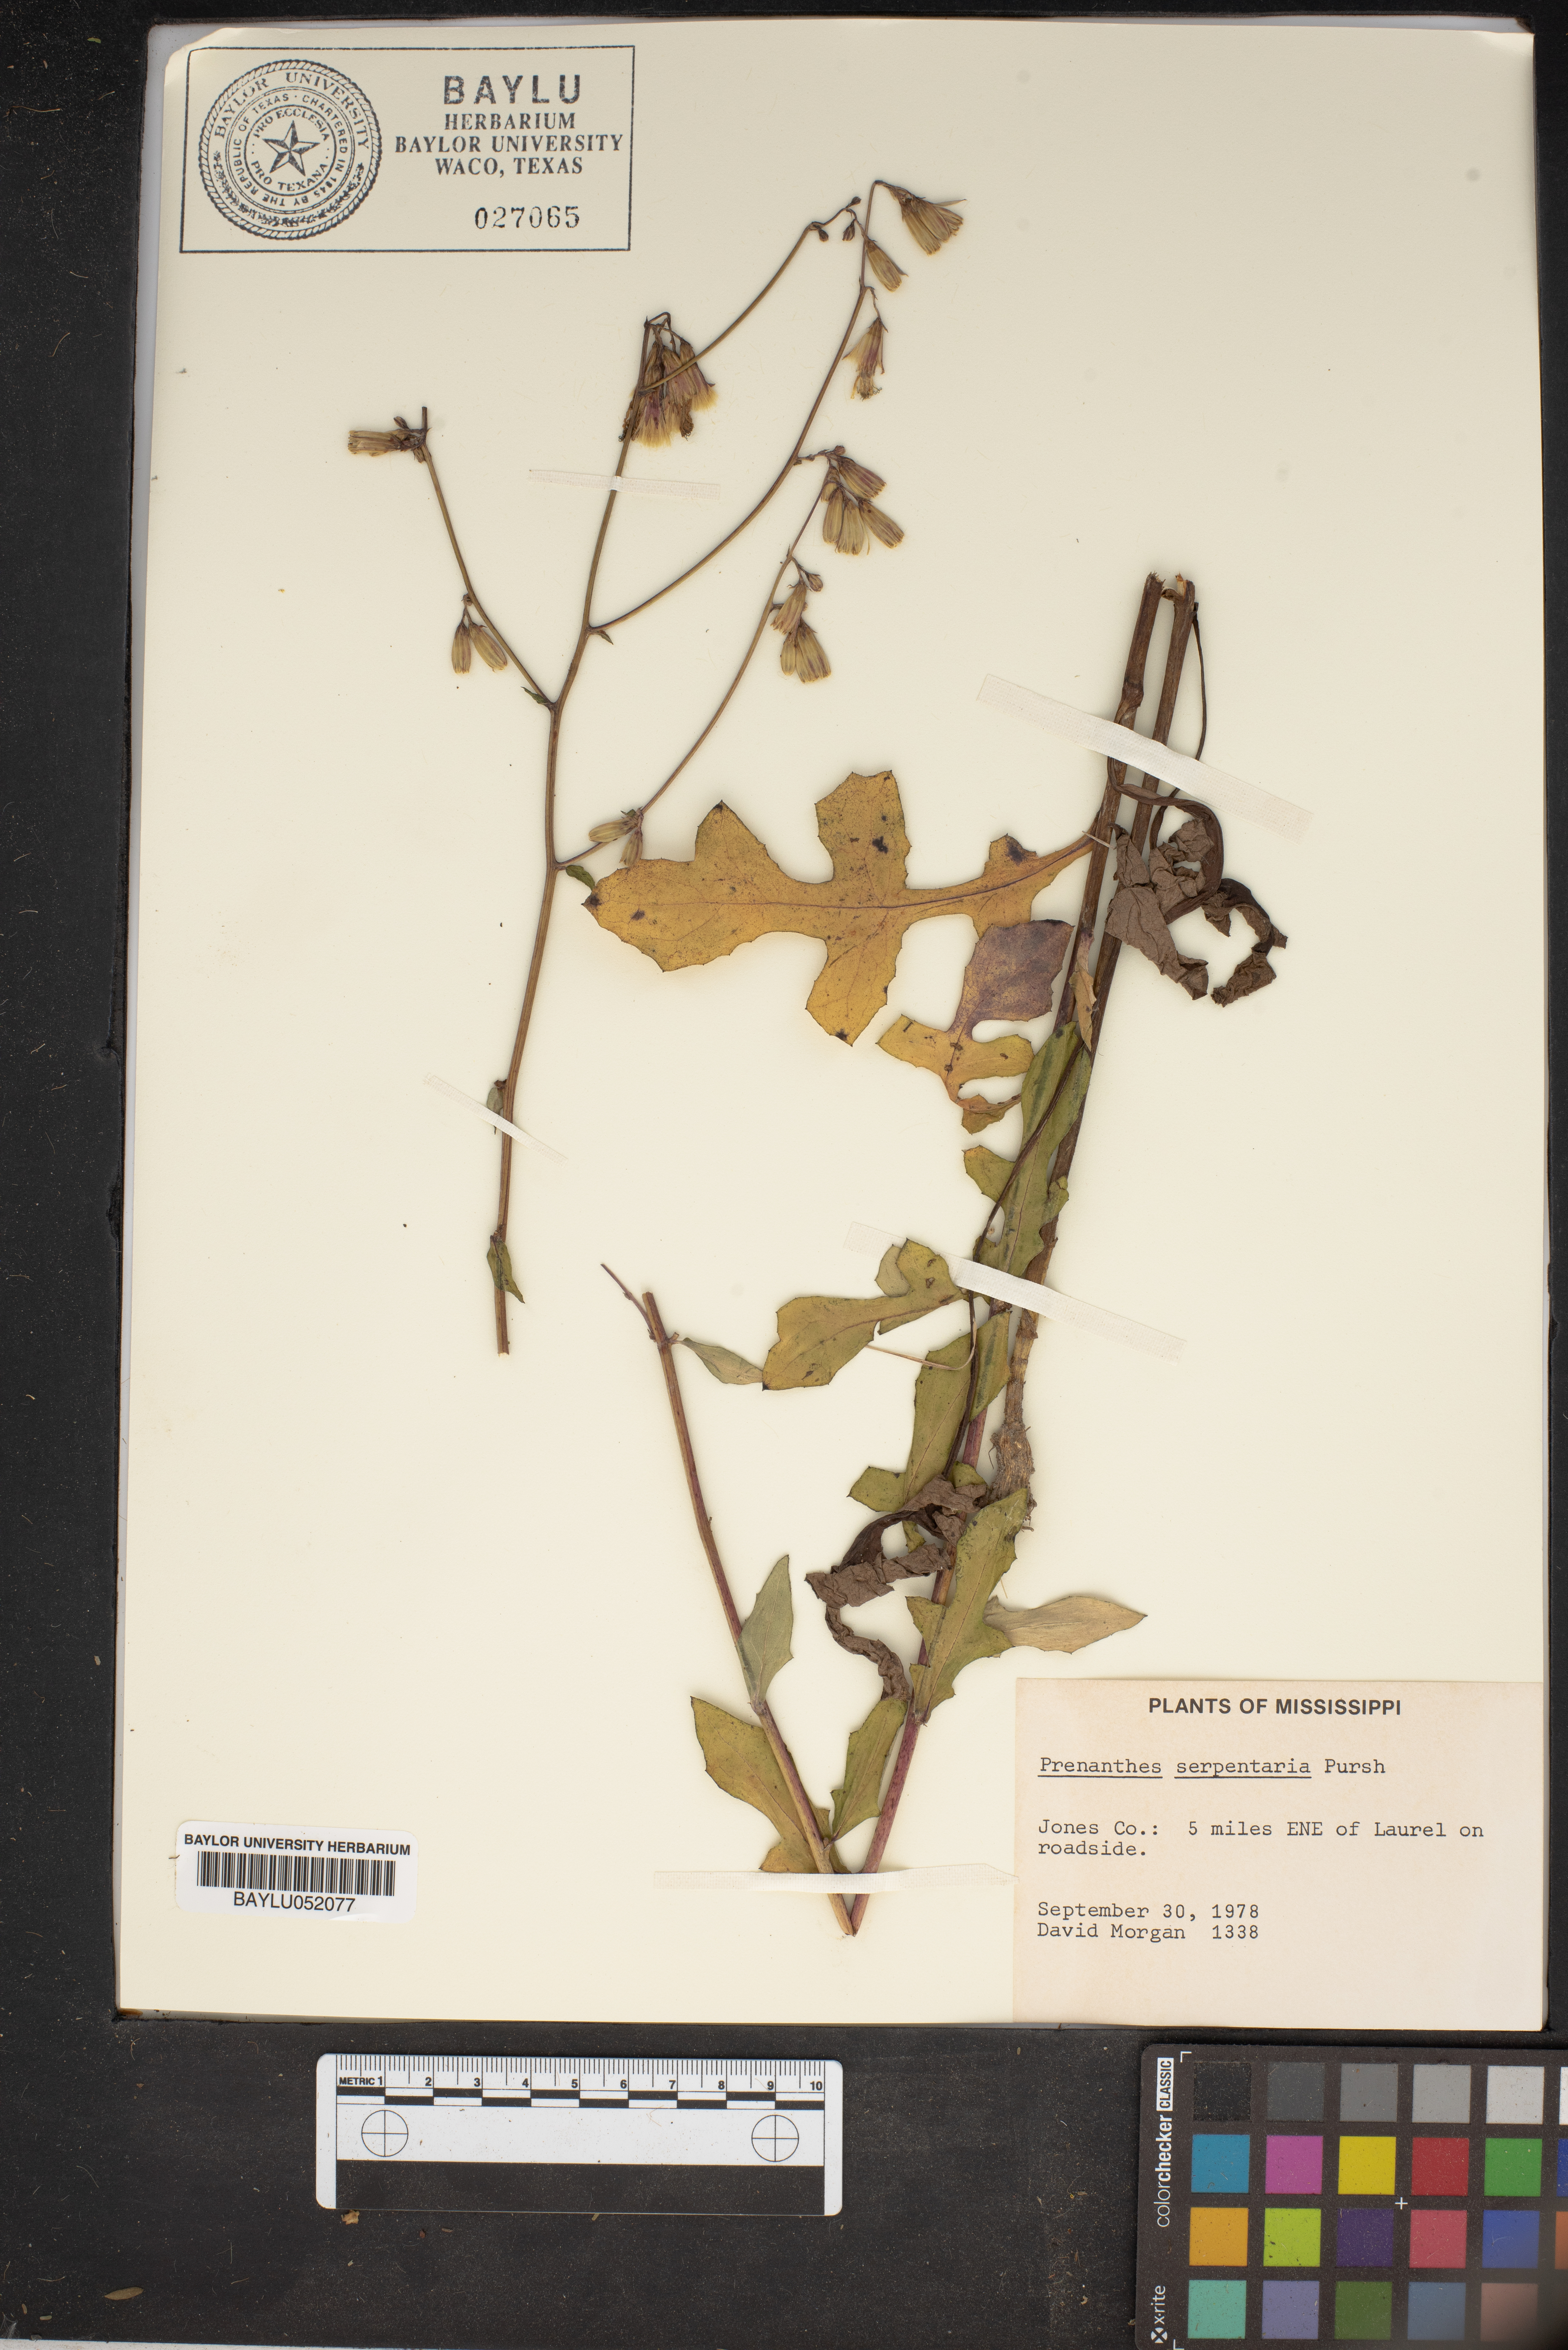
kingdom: Plantae
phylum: Tracheophyta
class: Magnoliopsida
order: Asterales
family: Asteraceae
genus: Nabalus
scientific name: Nabalus serpentarius
